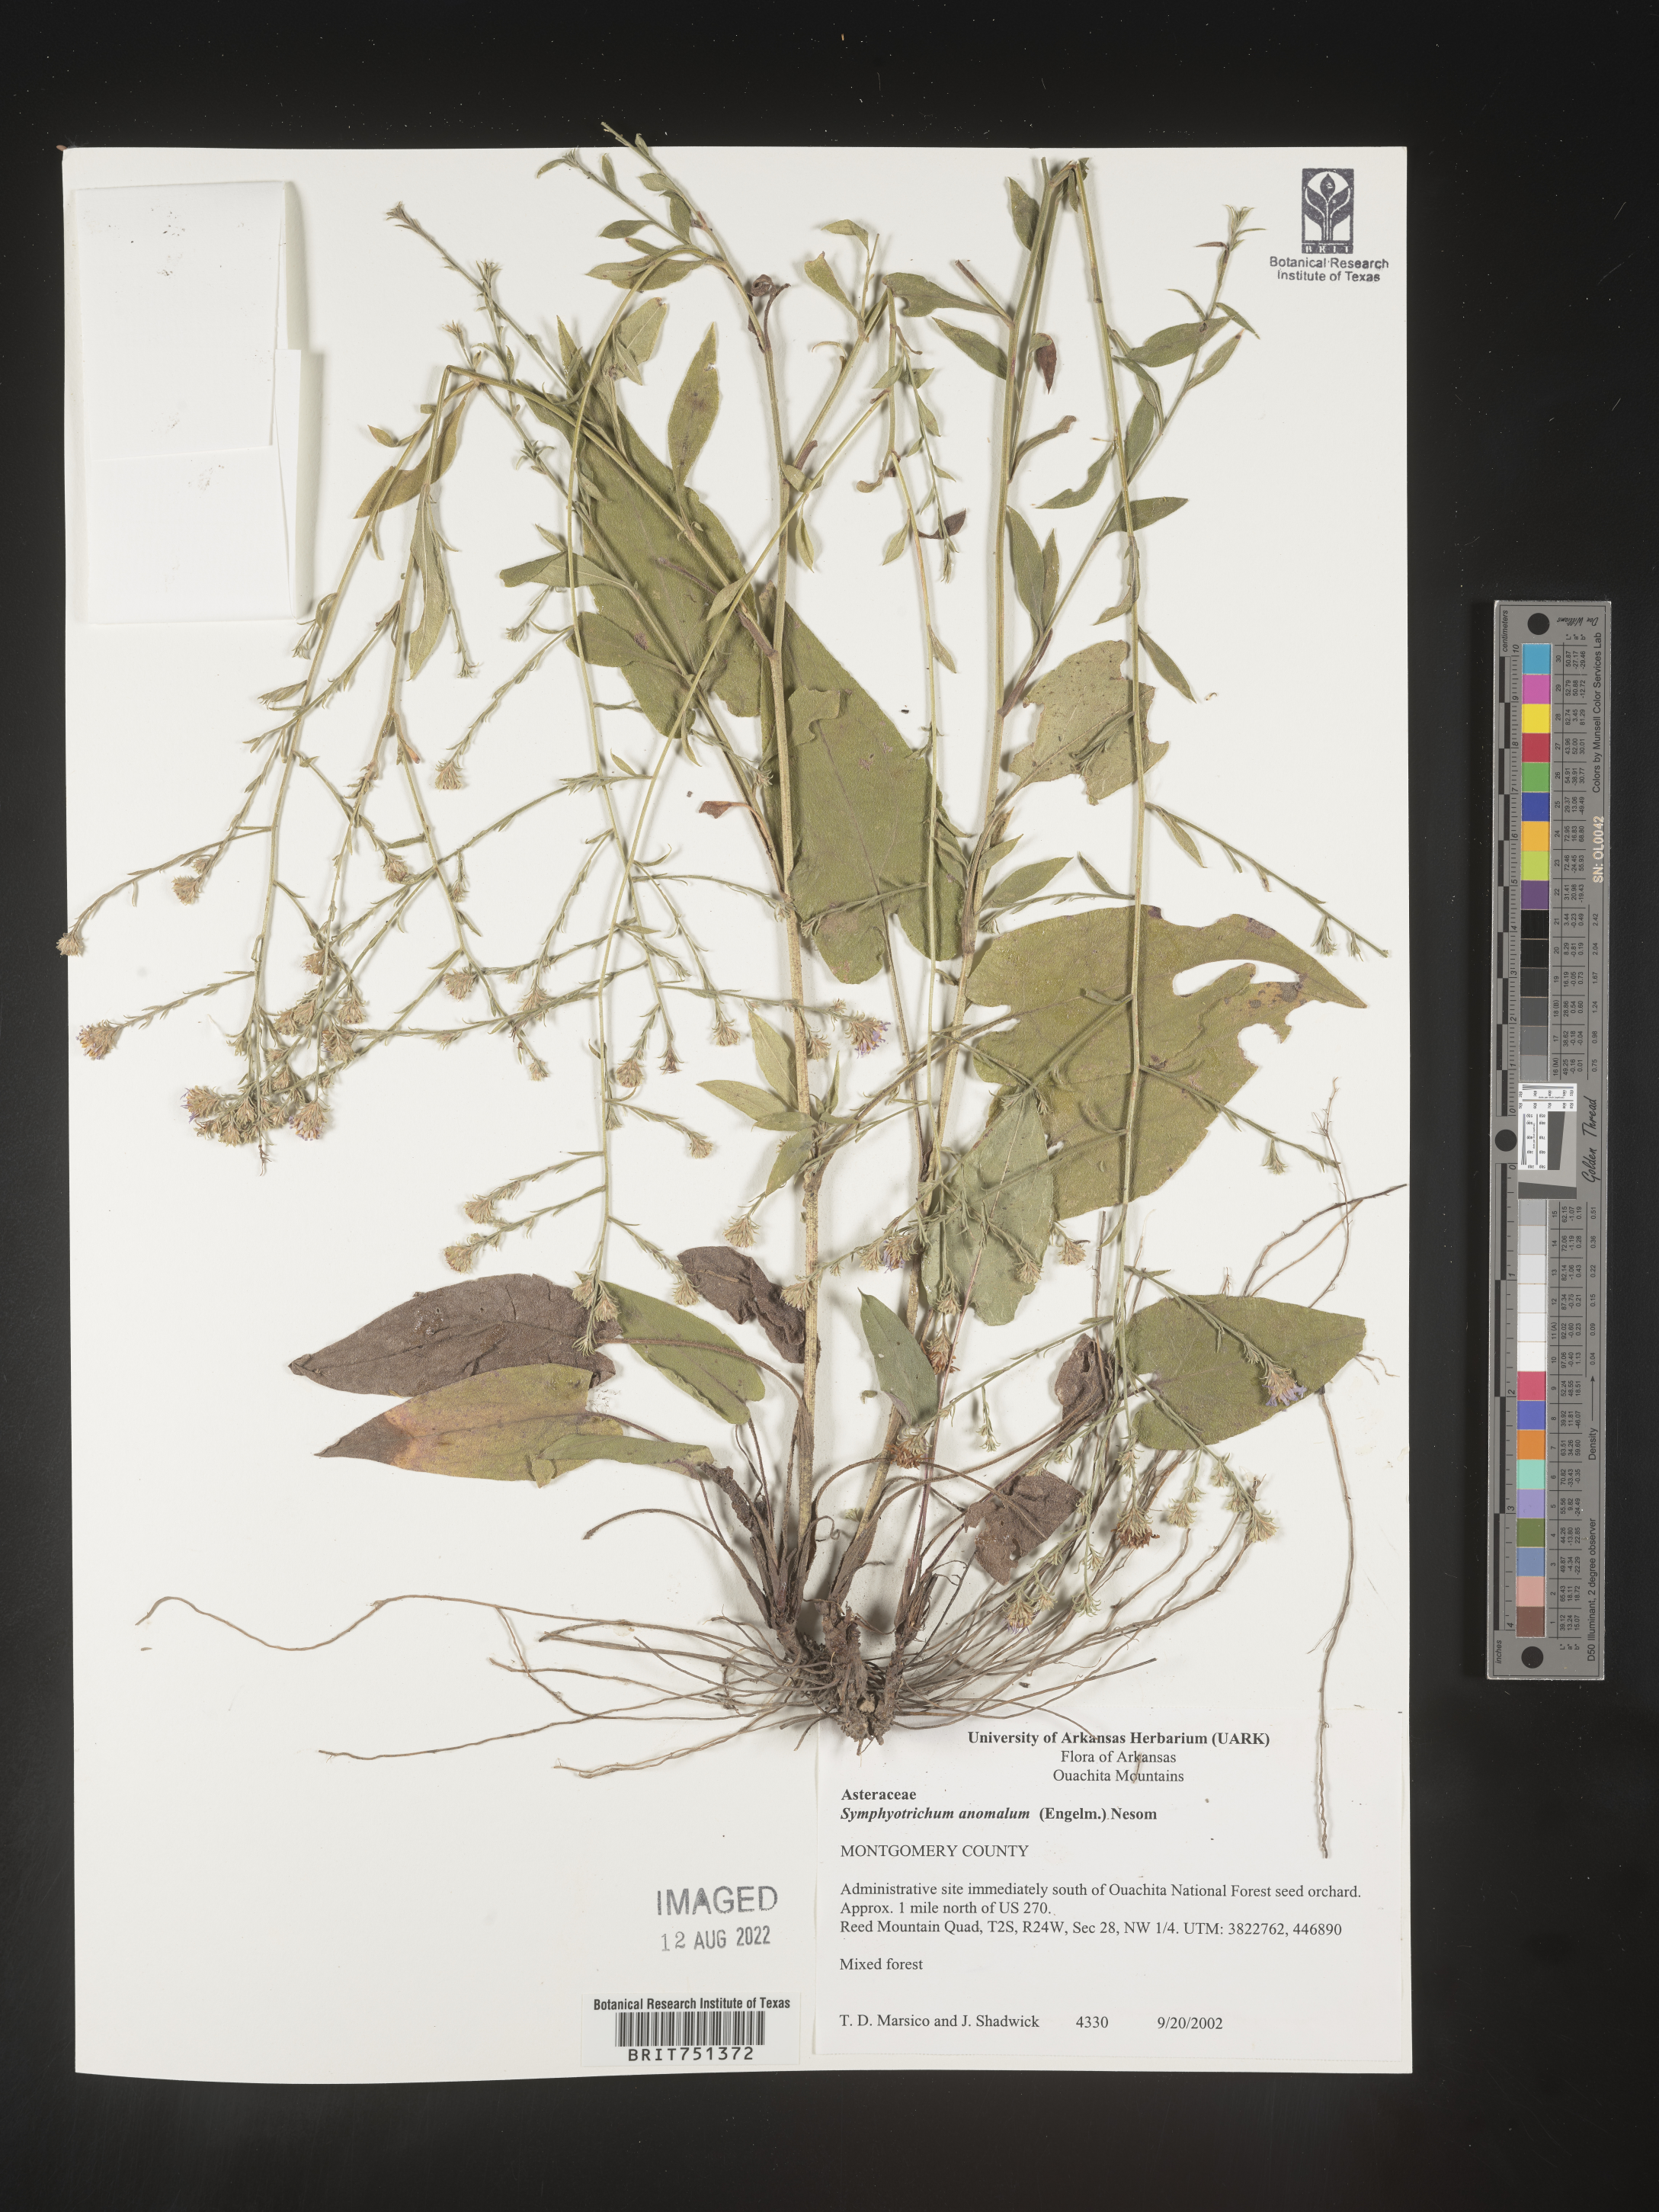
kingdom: Plantae
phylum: Tracheophyta
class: Magnoliopsida
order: Asterales
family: Asteraceae
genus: Symphyotrichum
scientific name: Symphyotrichum anomalum
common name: Many-ray aster
